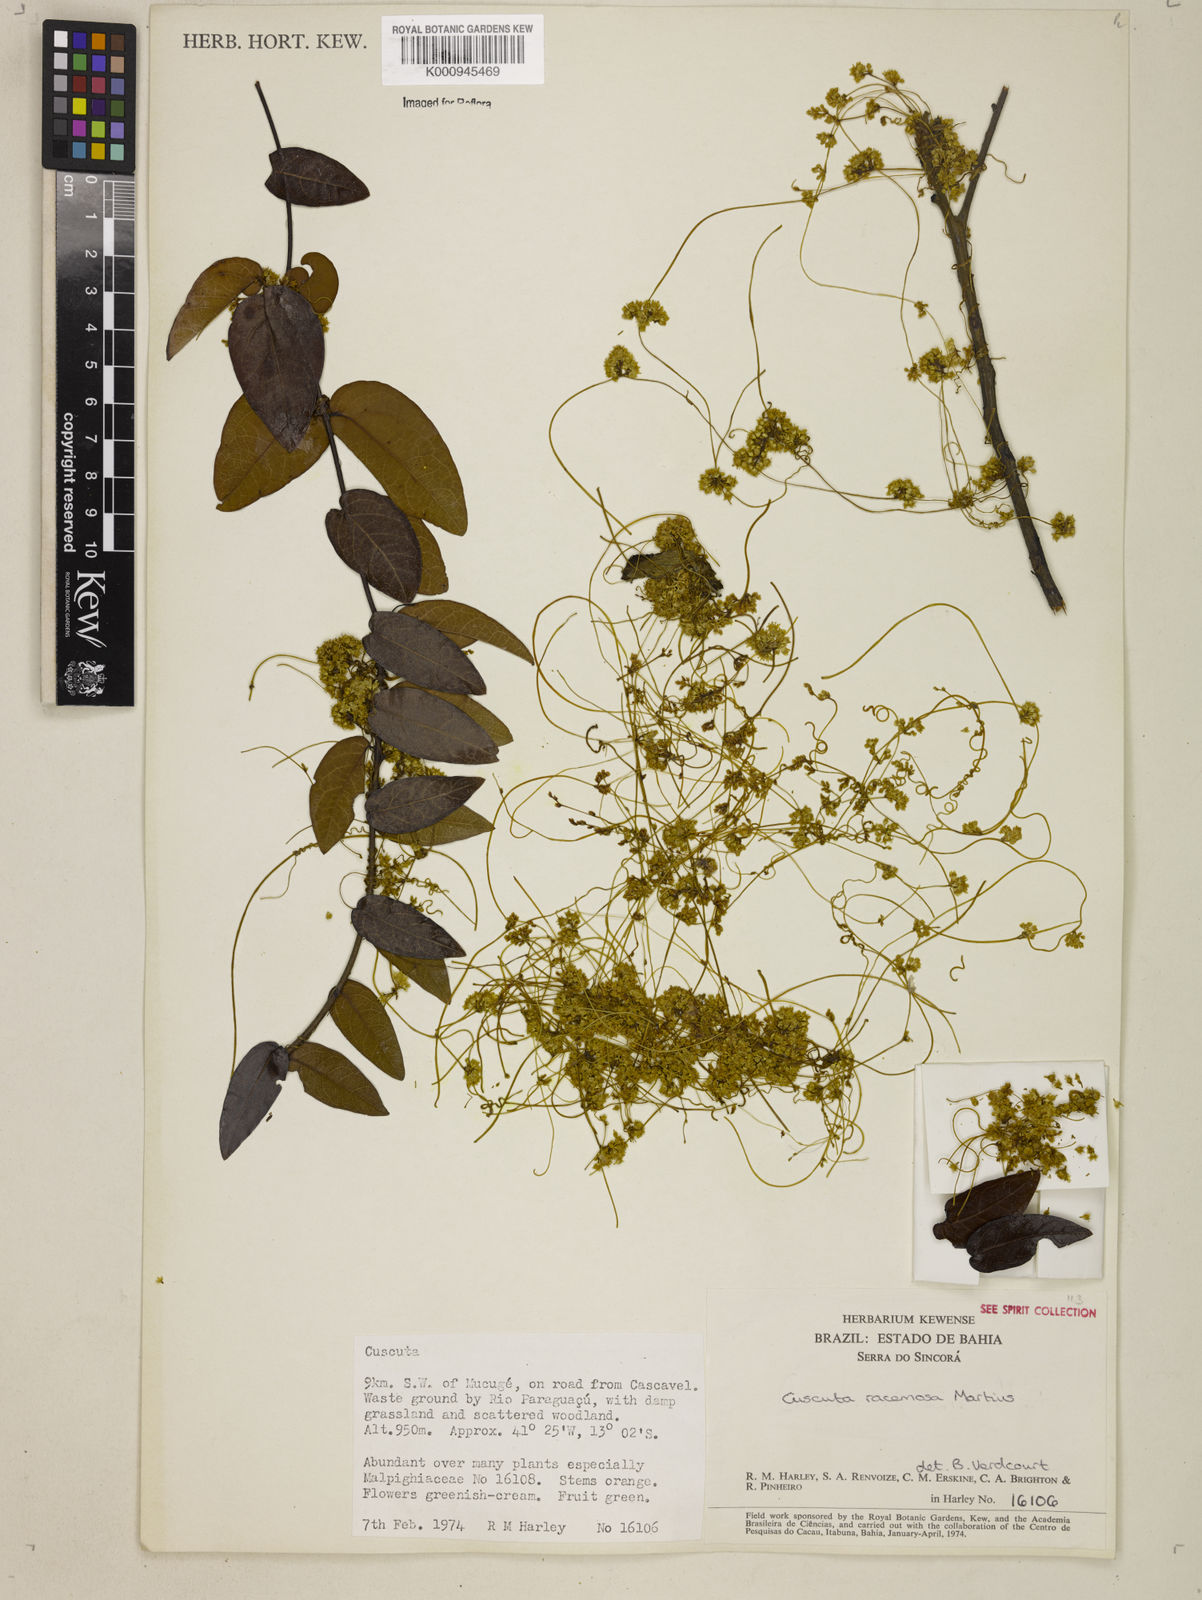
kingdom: Plantae
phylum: Tracheophyta
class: Magnoliopsida
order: Solanales
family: Convolvulaceae
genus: Cuscuta
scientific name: Cuscuta racemosa
